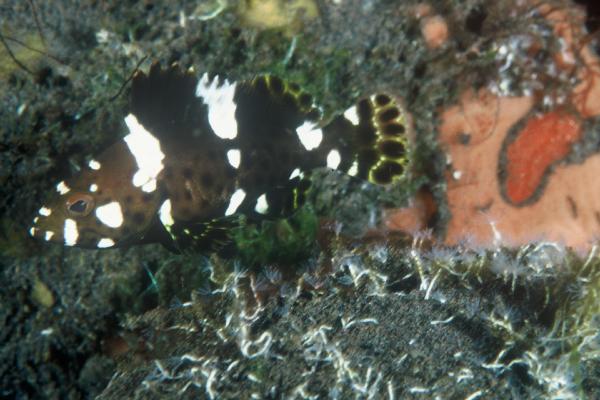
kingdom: Animalia
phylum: Chordata
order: Perciformes
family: Serranidae
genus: Epinephelus
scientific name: Epinephelus maculatus
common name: Highfin grouper
